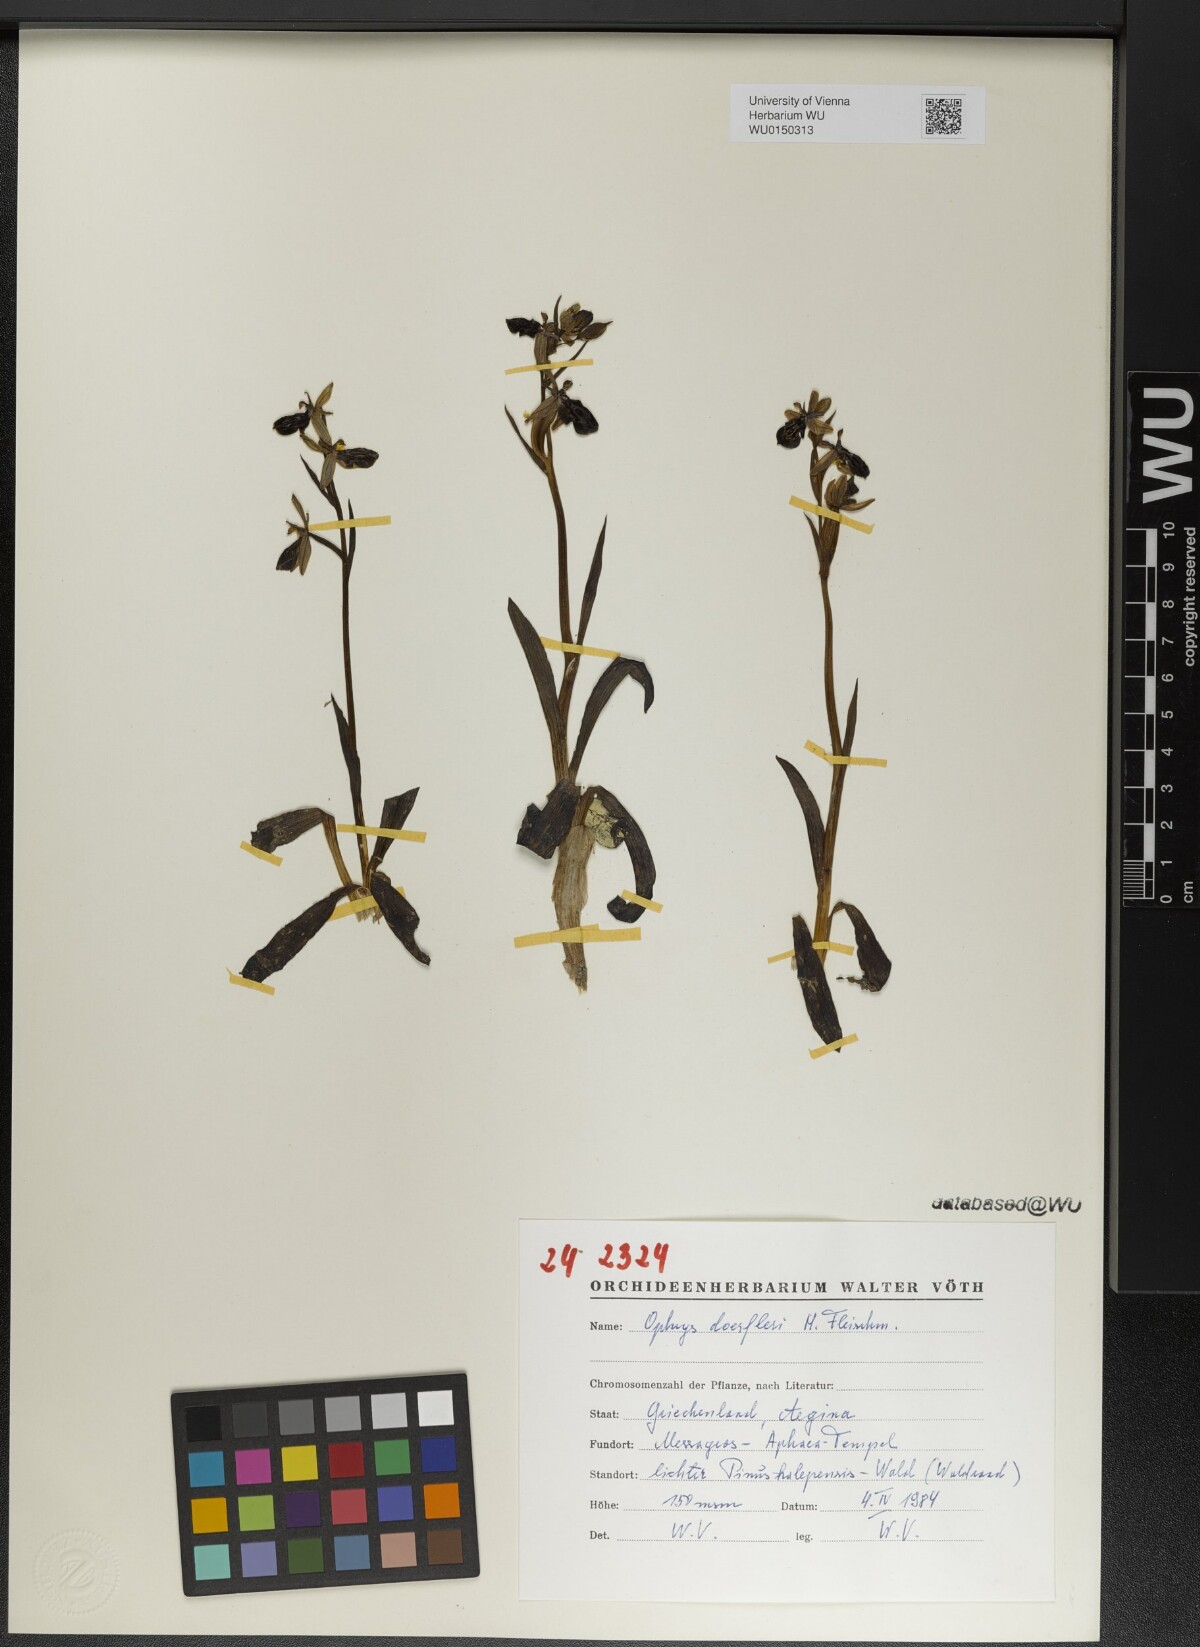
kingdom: Plantae
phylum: Tracheophyta
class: Liliopsida
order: Asparagales
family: Orchidaceae
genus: Ophrys
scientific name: Ophrys cretica
